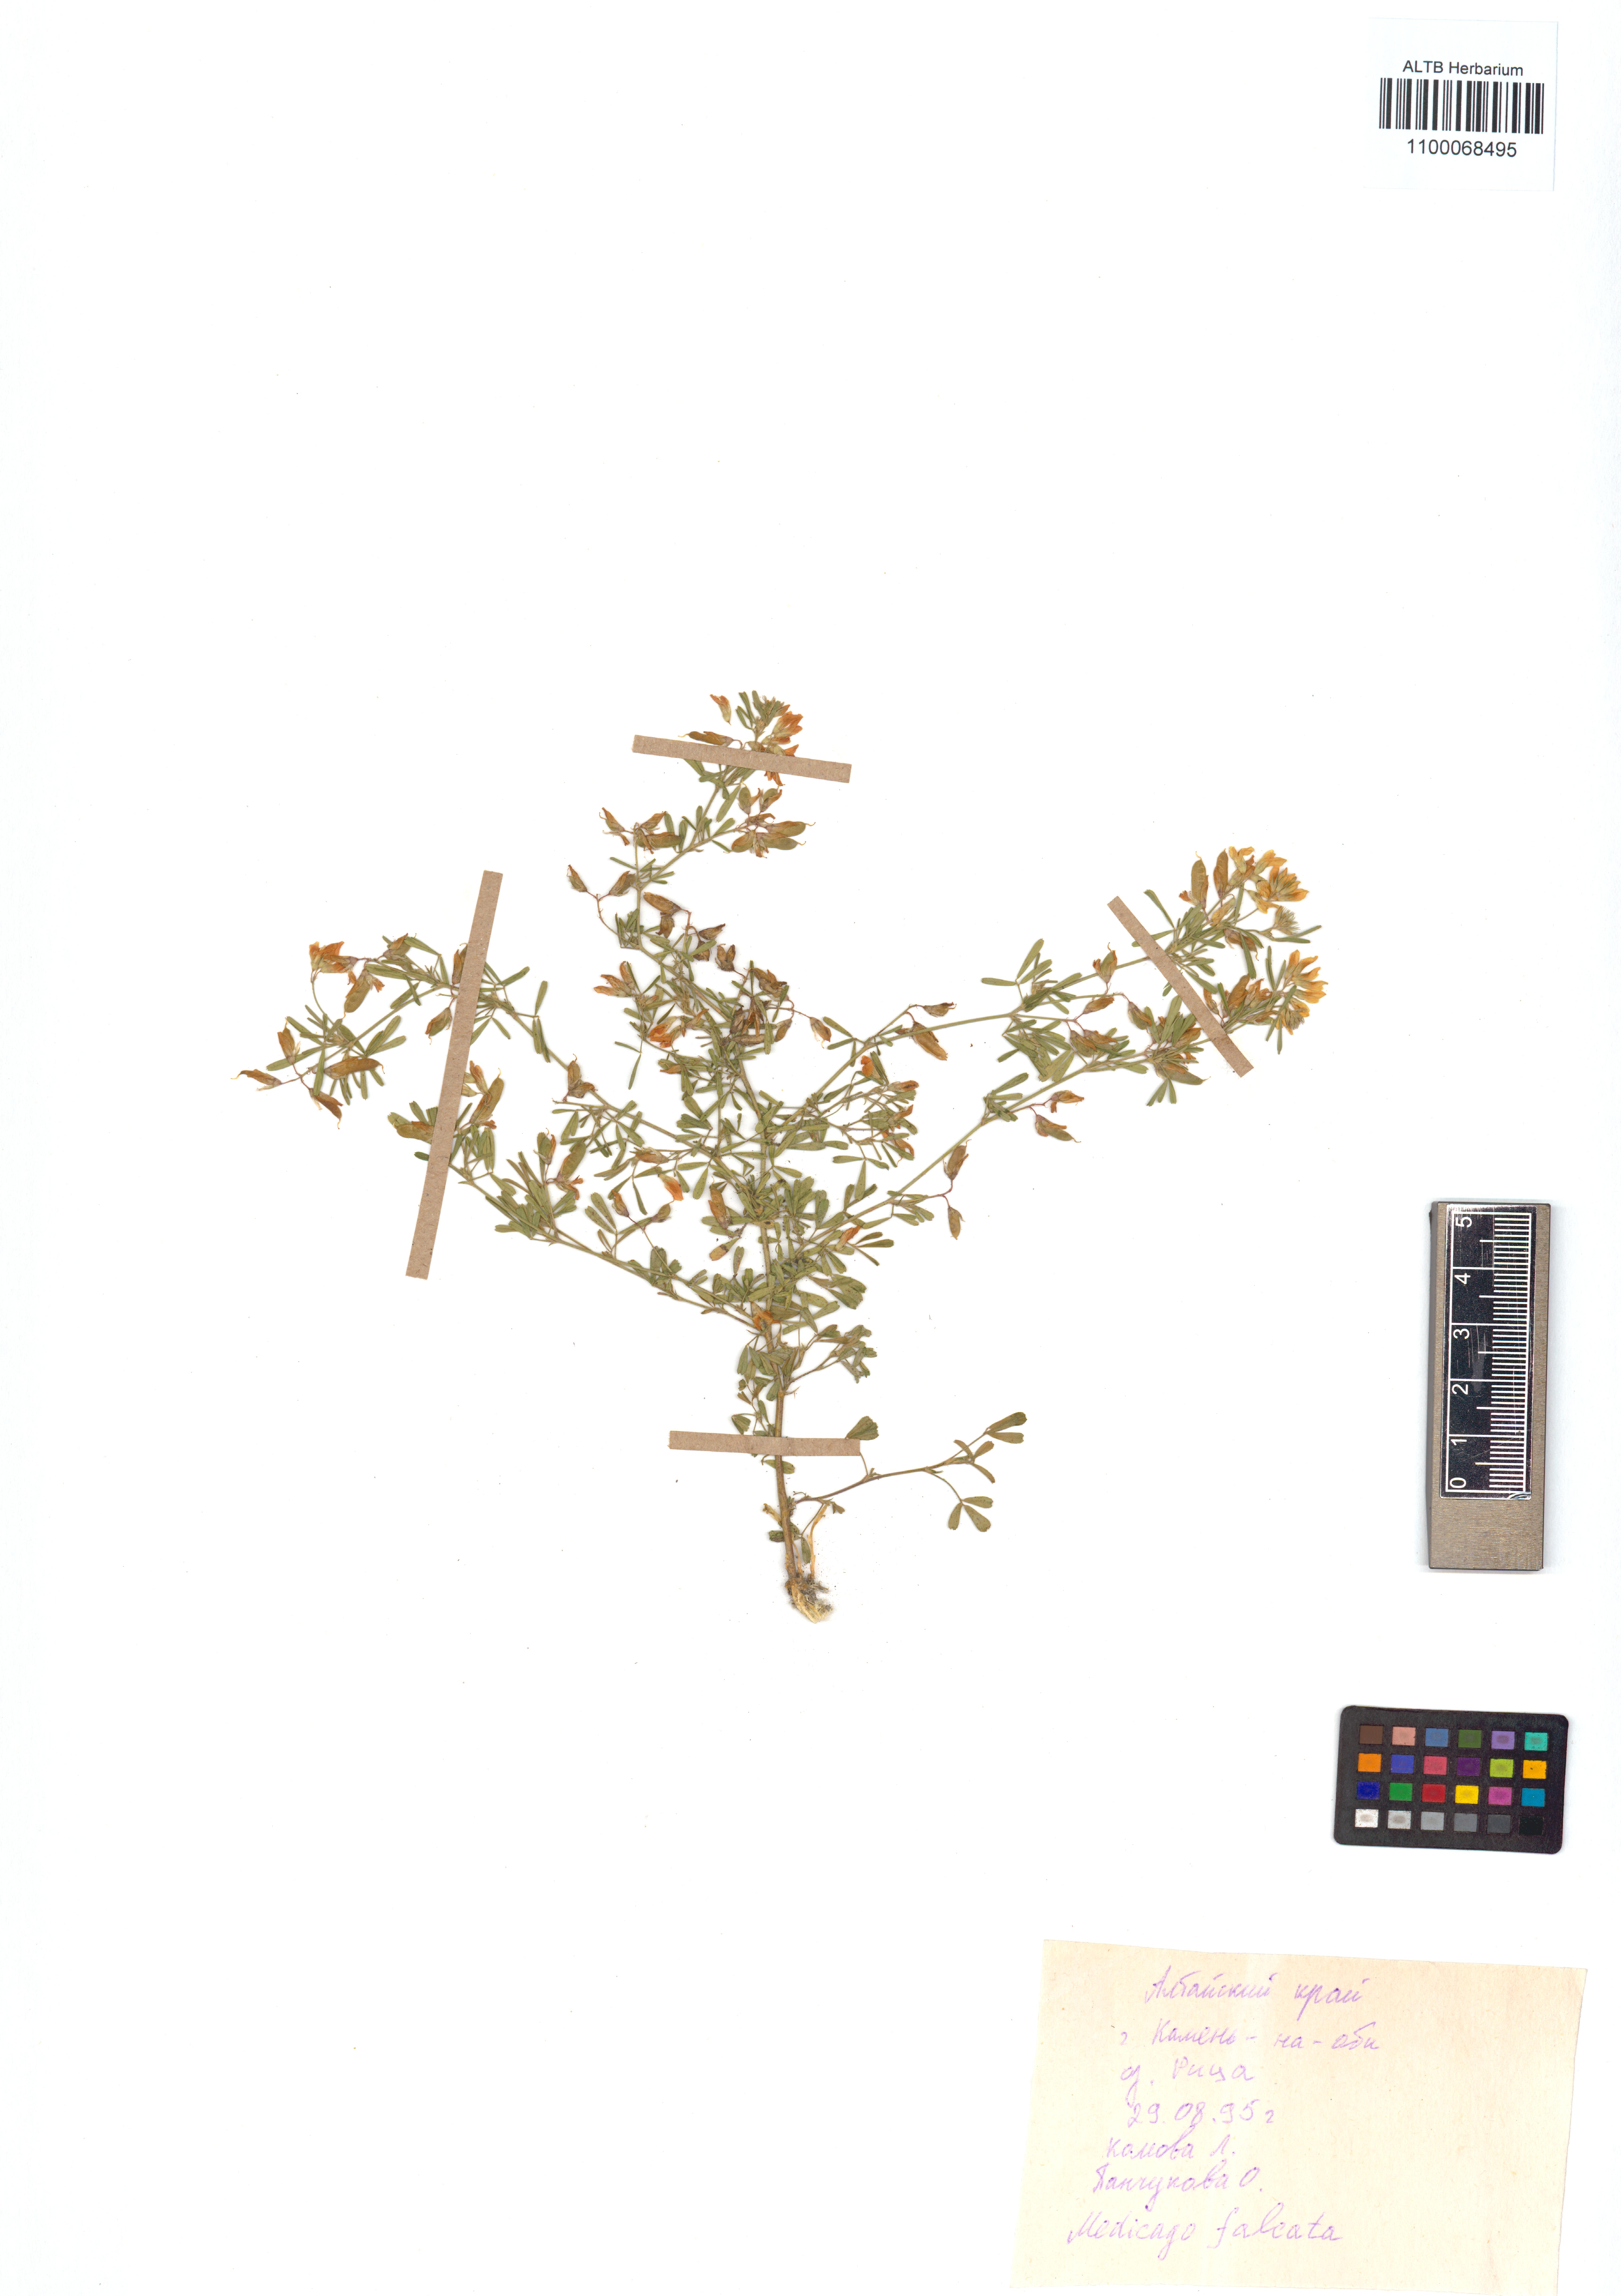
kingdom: Plantae
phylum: Tracheophyta
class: Magnoliopsida
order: Fabales
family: Fabaceae
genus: Medicago
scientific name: Medicago falcata
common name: Sickle medick
